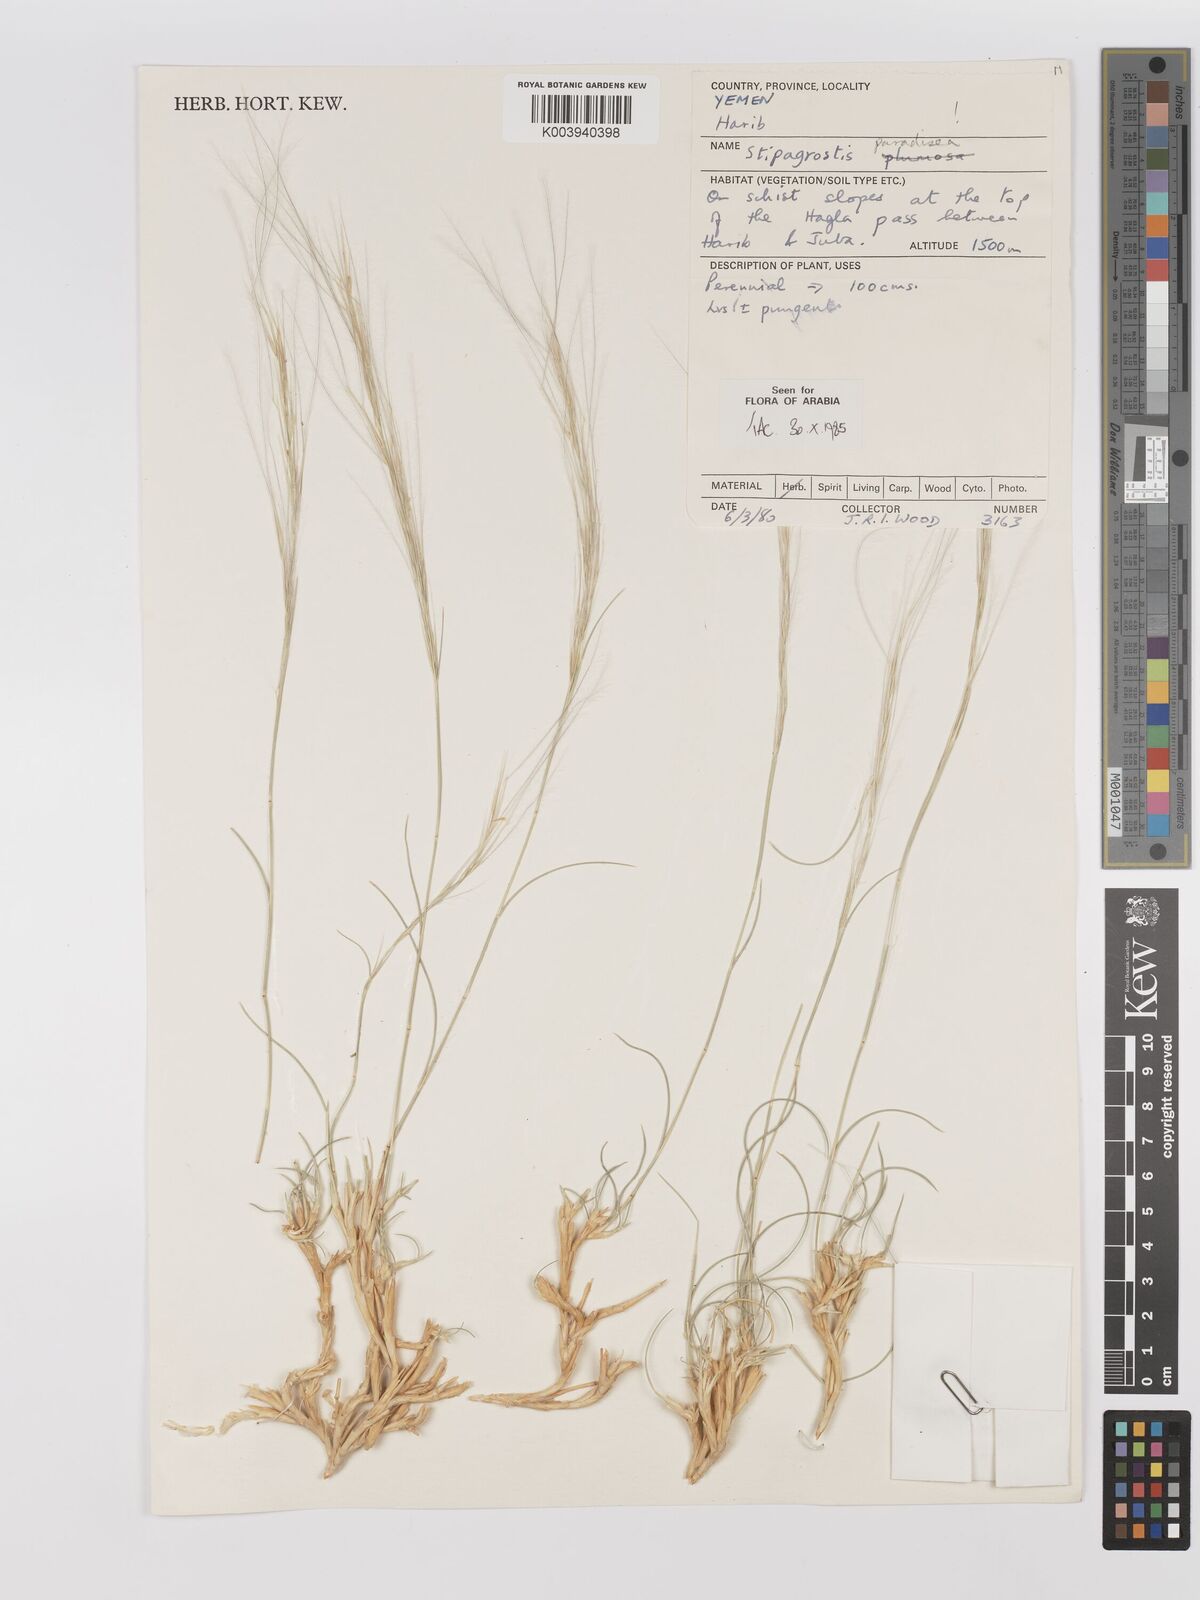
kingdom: Plantae
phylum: Tracheophyta
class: Liliopsida
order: Poales
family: Poaceae
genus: Stipagrostis
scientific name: Stipagrostis paradisea
